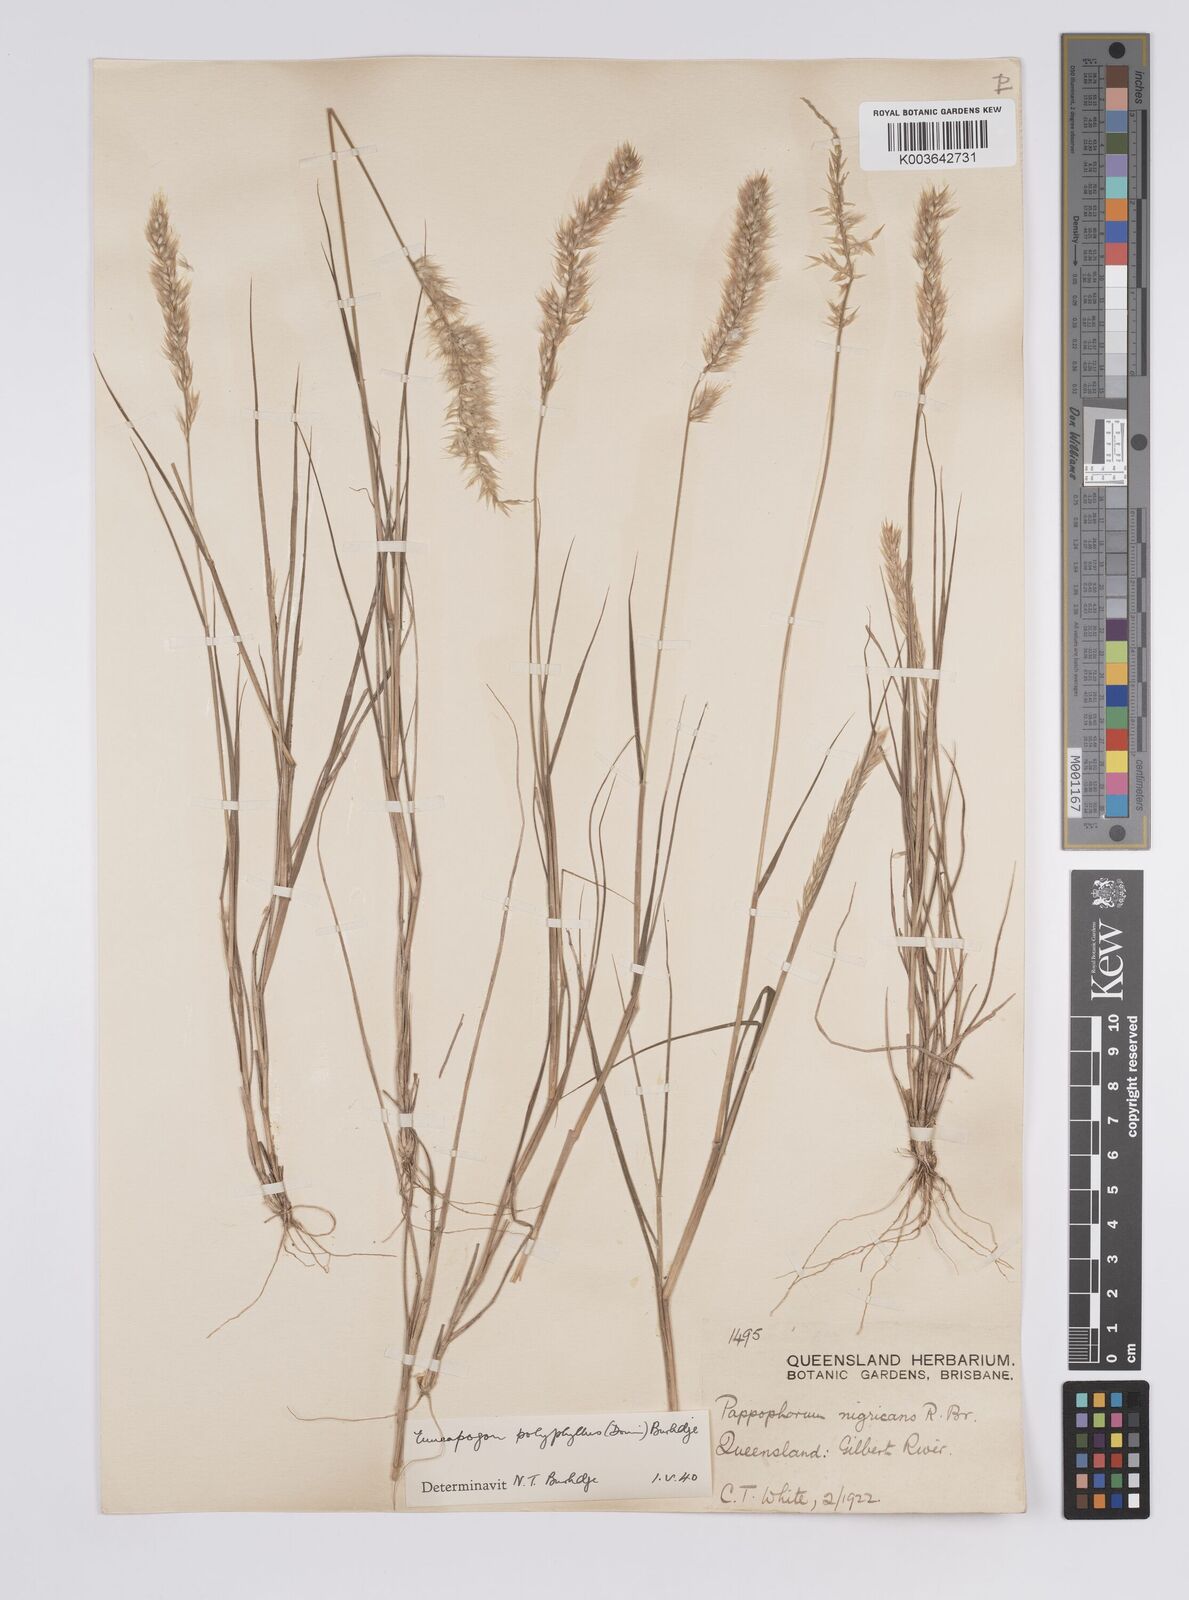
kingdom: Plantae
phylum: Tracheophyta
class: Liliopsida
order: Poales
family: Poaceae
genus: Enneapogon
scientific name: Enneapogon polyphyllus
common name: Leafy nineawn
